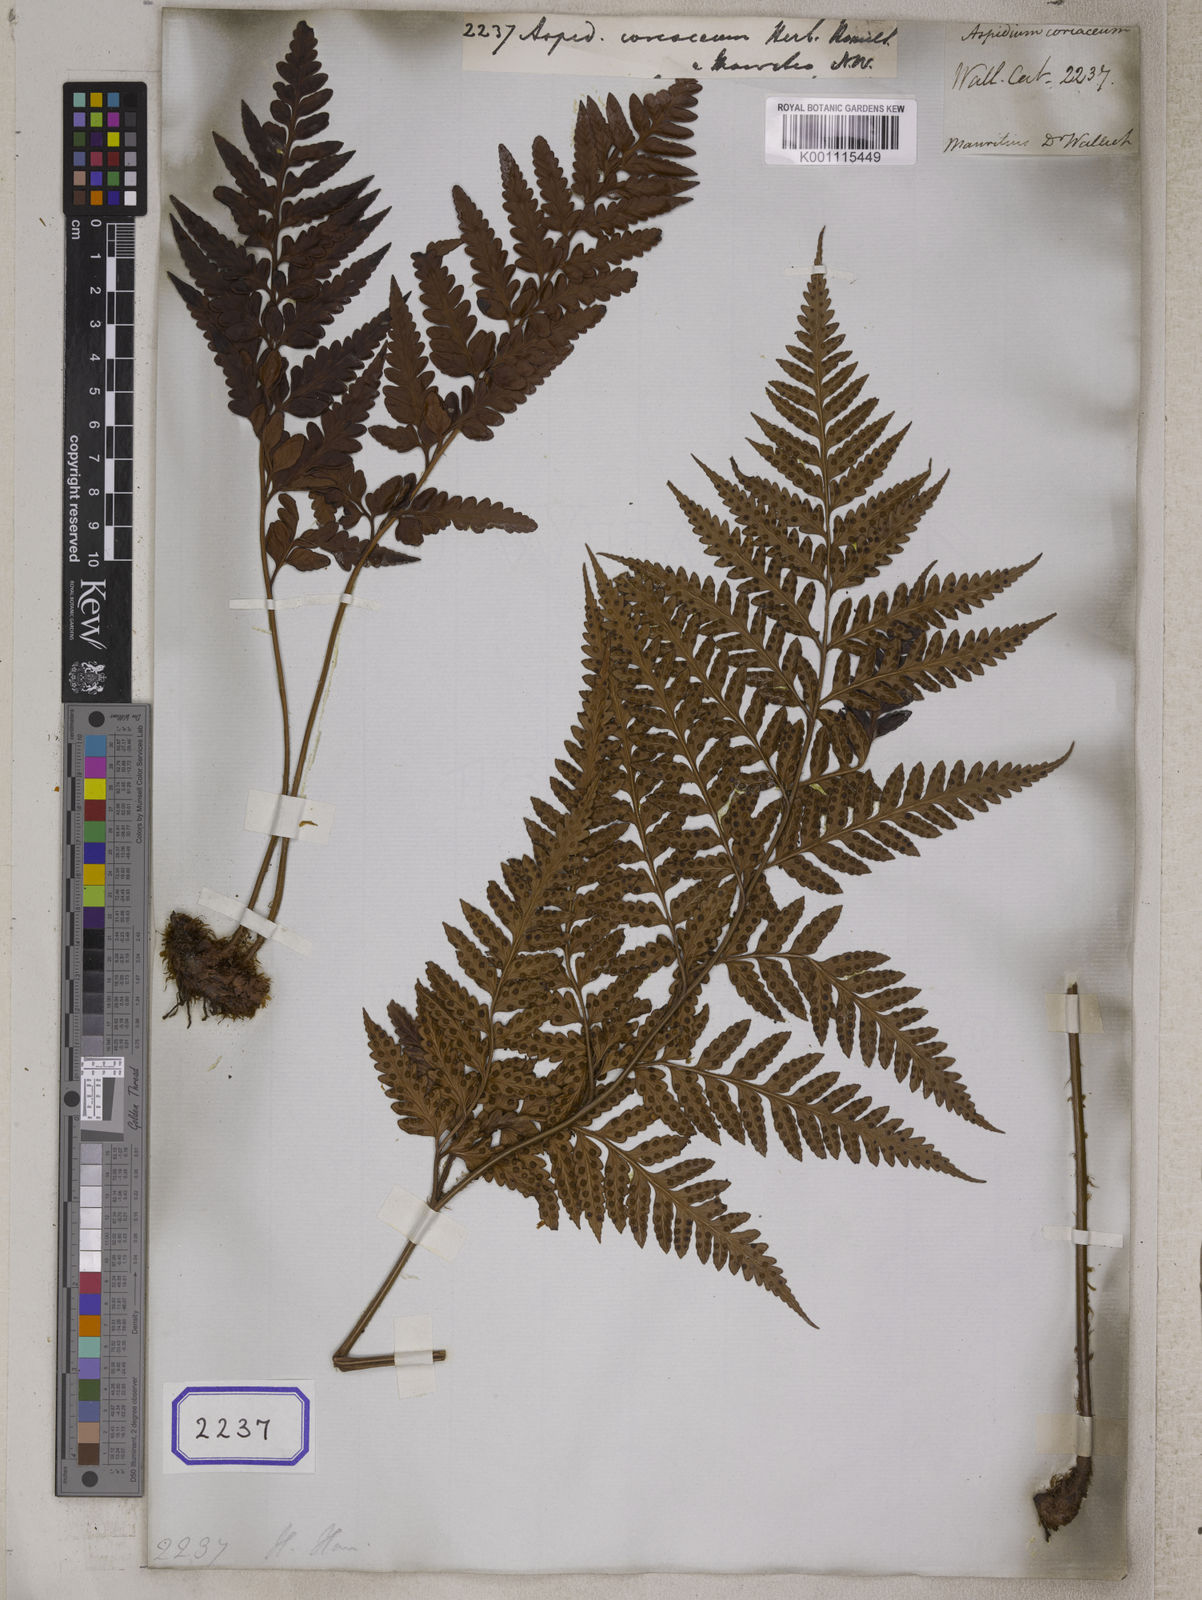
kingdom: Plantae
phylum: Tracheophyta
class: Polypodiopsida
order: Polypodiales
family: Dryopteridaceae
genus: Rumohra
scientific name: Rumohra adiantiformis
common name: Leather fern
